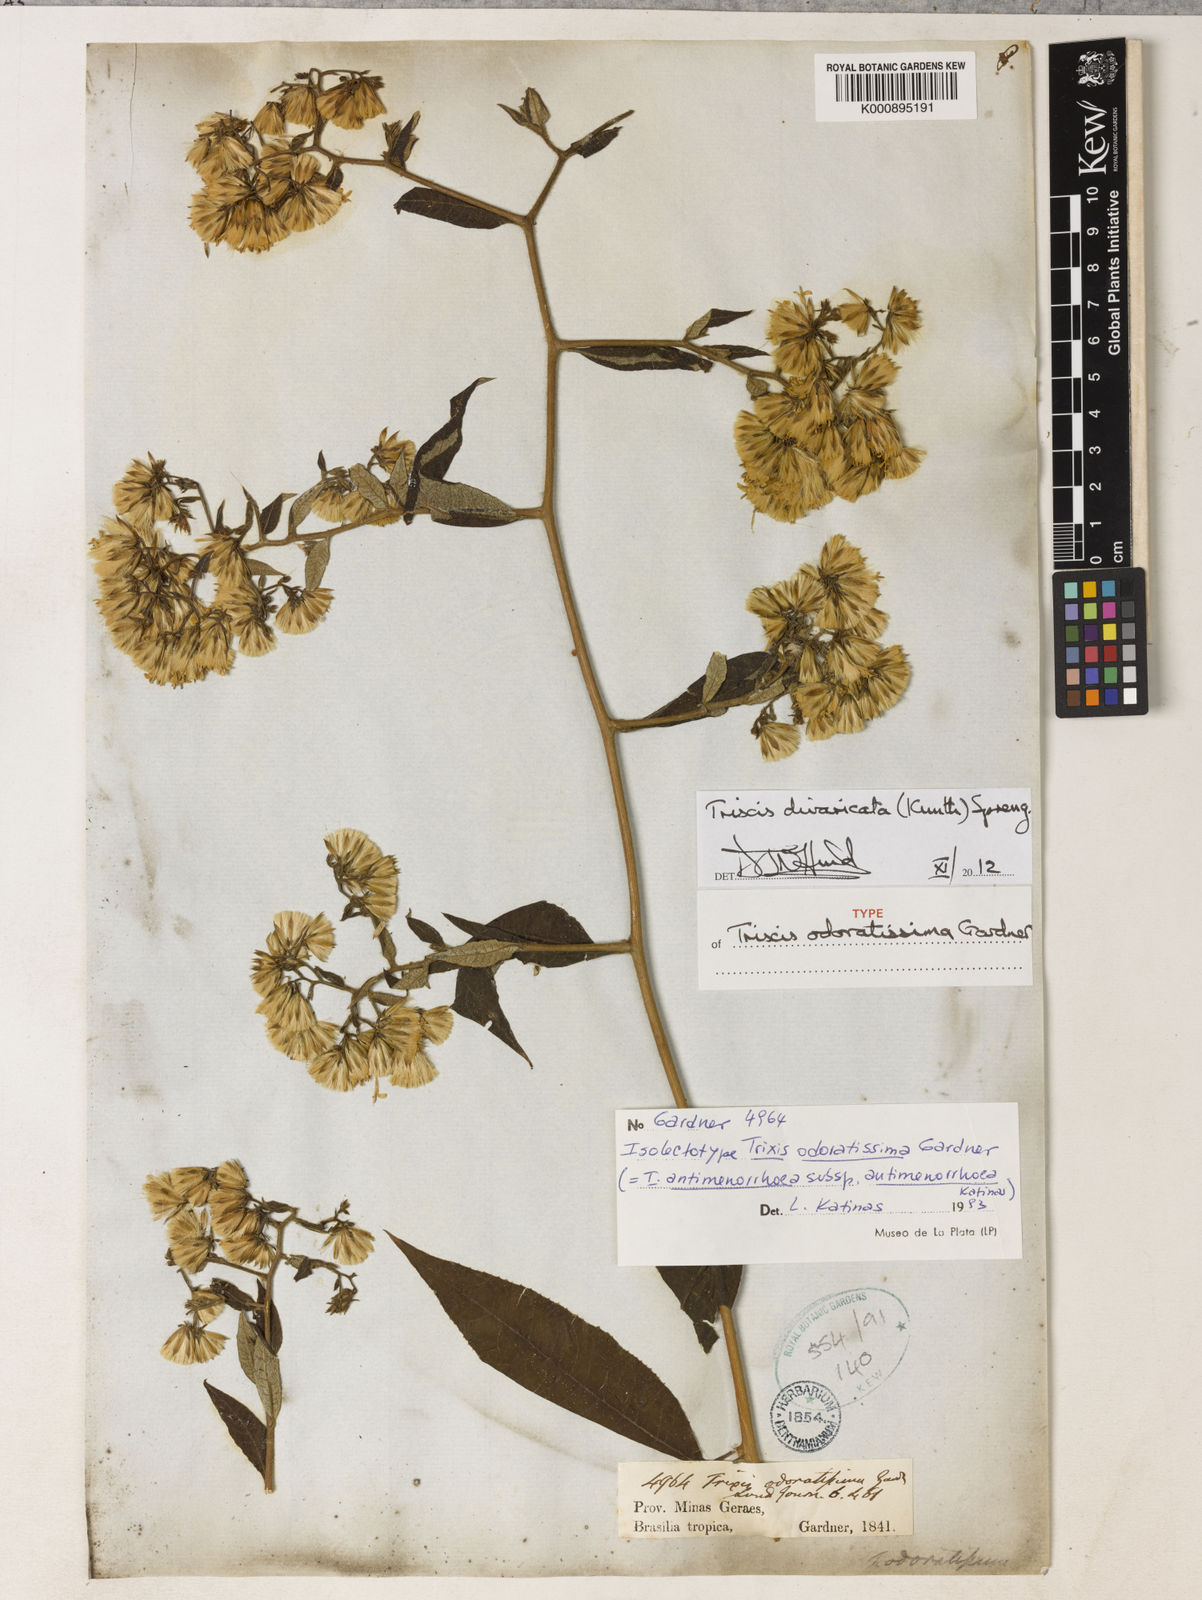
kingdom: Plantae
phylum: Tracheophyta
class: Magnoliopsida
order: Asterales
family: Asteraceae
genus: Trixis
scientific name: Trixis divaricata
